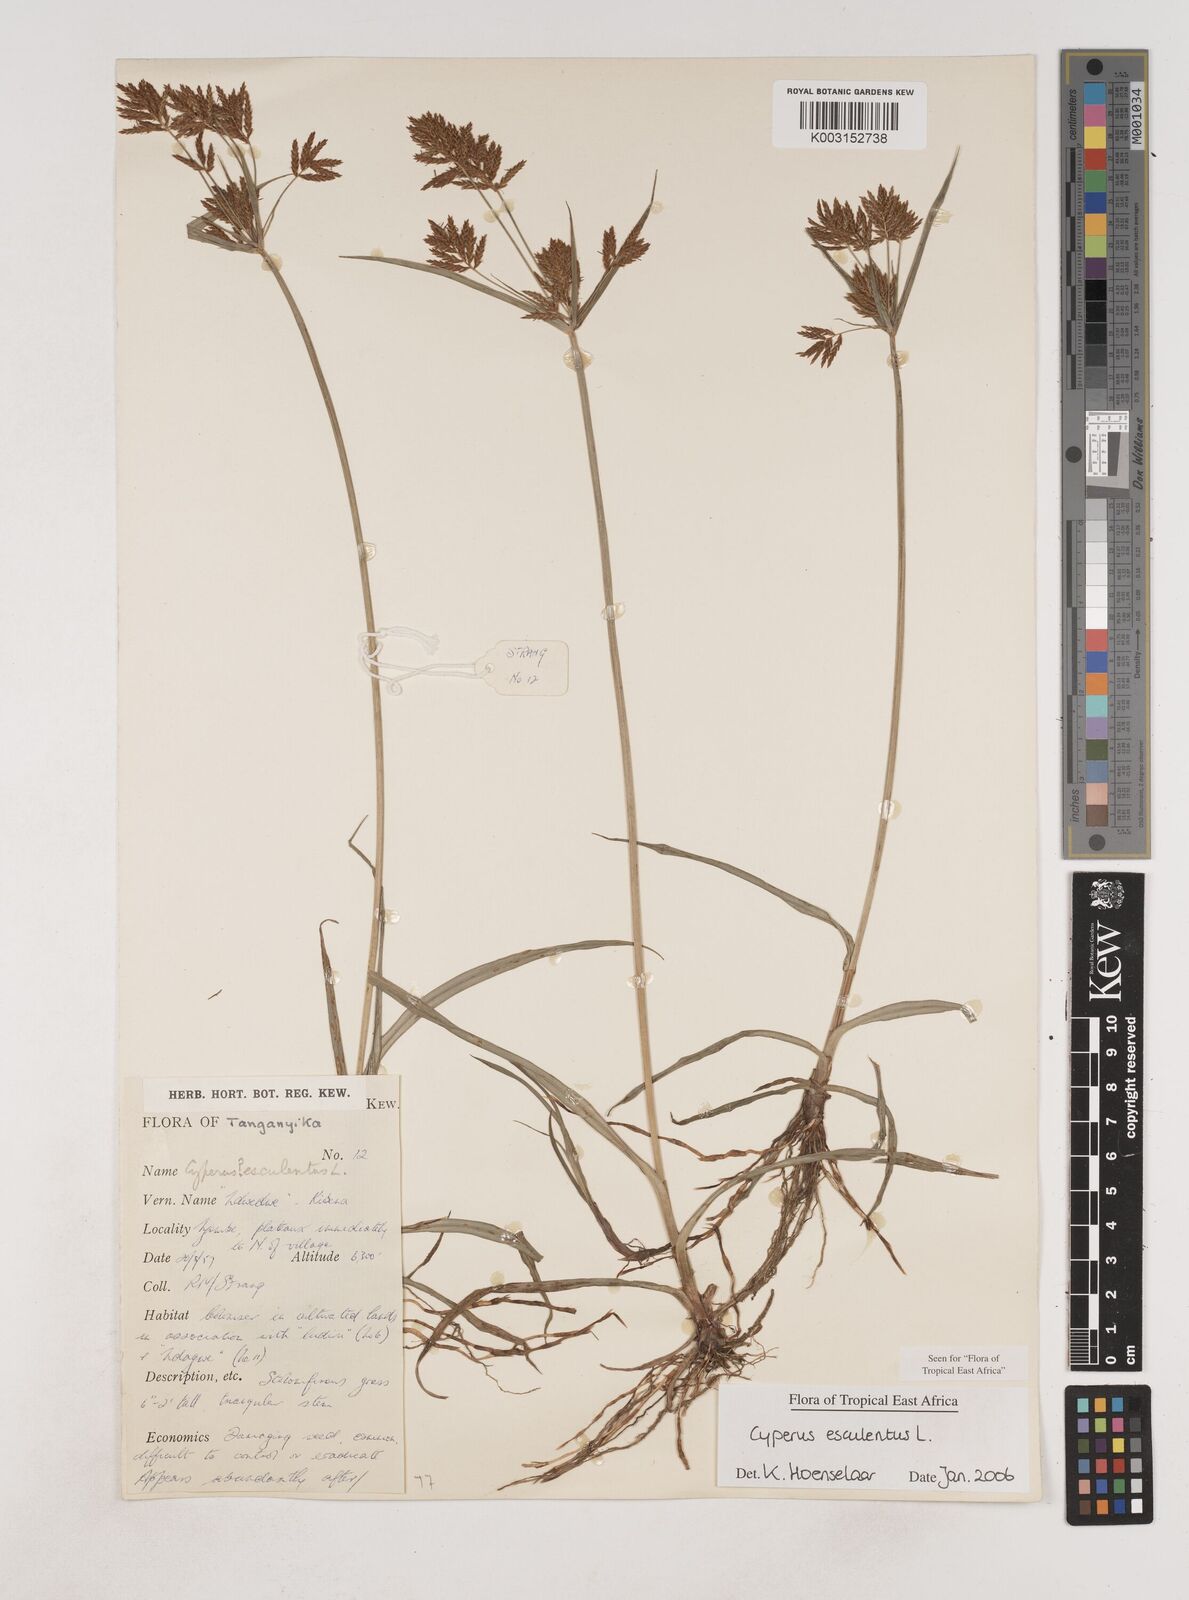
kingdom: Plantae
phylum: Tracheophyta
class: Liliopsida
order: Poales
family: Cyperaceae
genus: Cyperus
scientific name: Cyperus esculentus
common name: Yellow nutsedge
